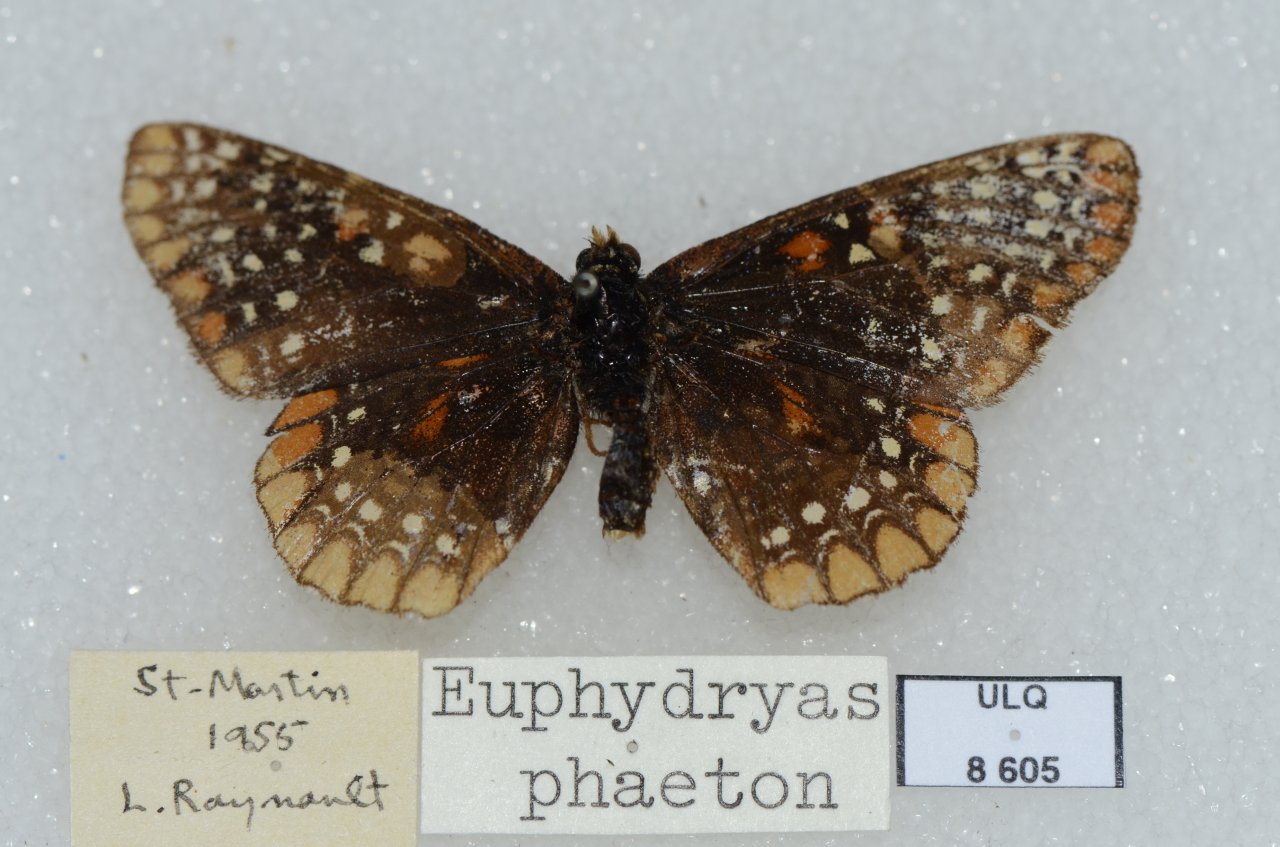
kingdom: Animalia
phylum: Arthropoda
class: Insecta
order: Lepidoptera
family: Nymphalidae
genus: Euphydryas
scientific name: Euphydryas phaeton
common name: Baltimore Checkerspot
